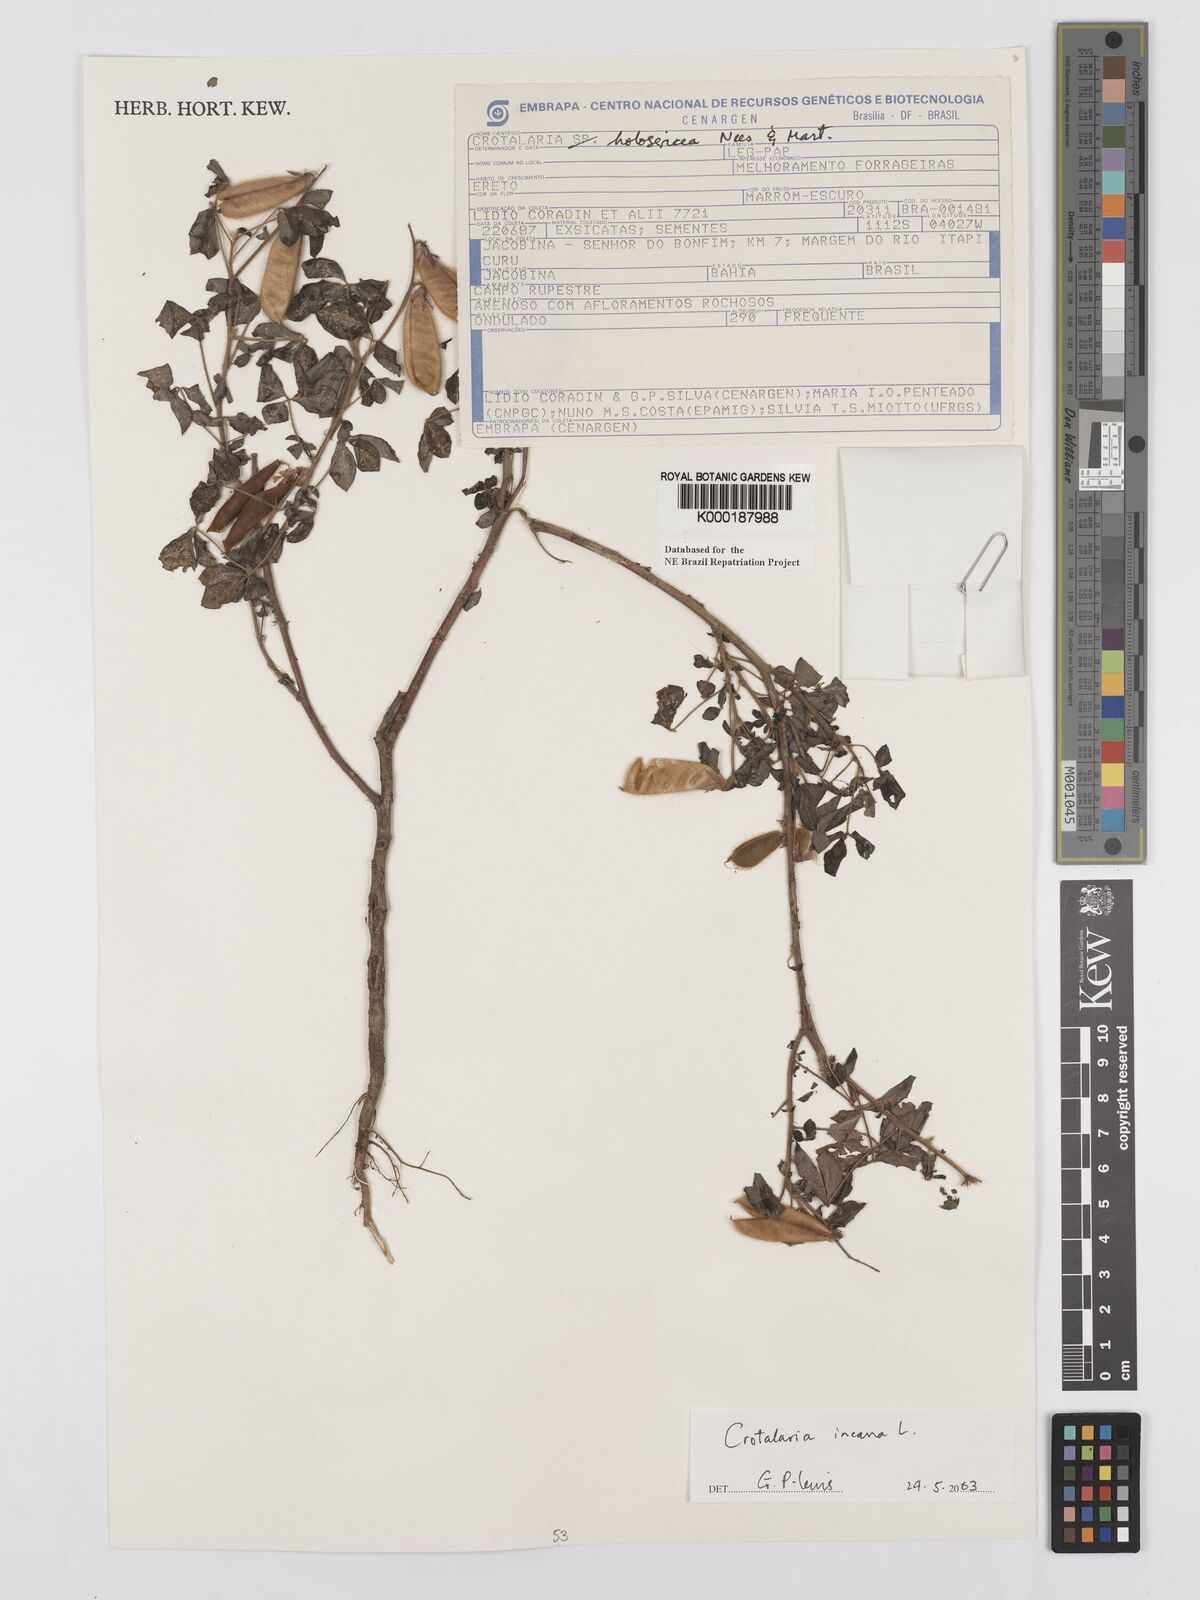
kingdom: Plantae
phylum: Tracheophyta
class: Magnoliopsida
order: Fabales
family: Fabaceae
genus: Crotalaria
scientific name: Crotalaria incana
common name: Shakeshake
